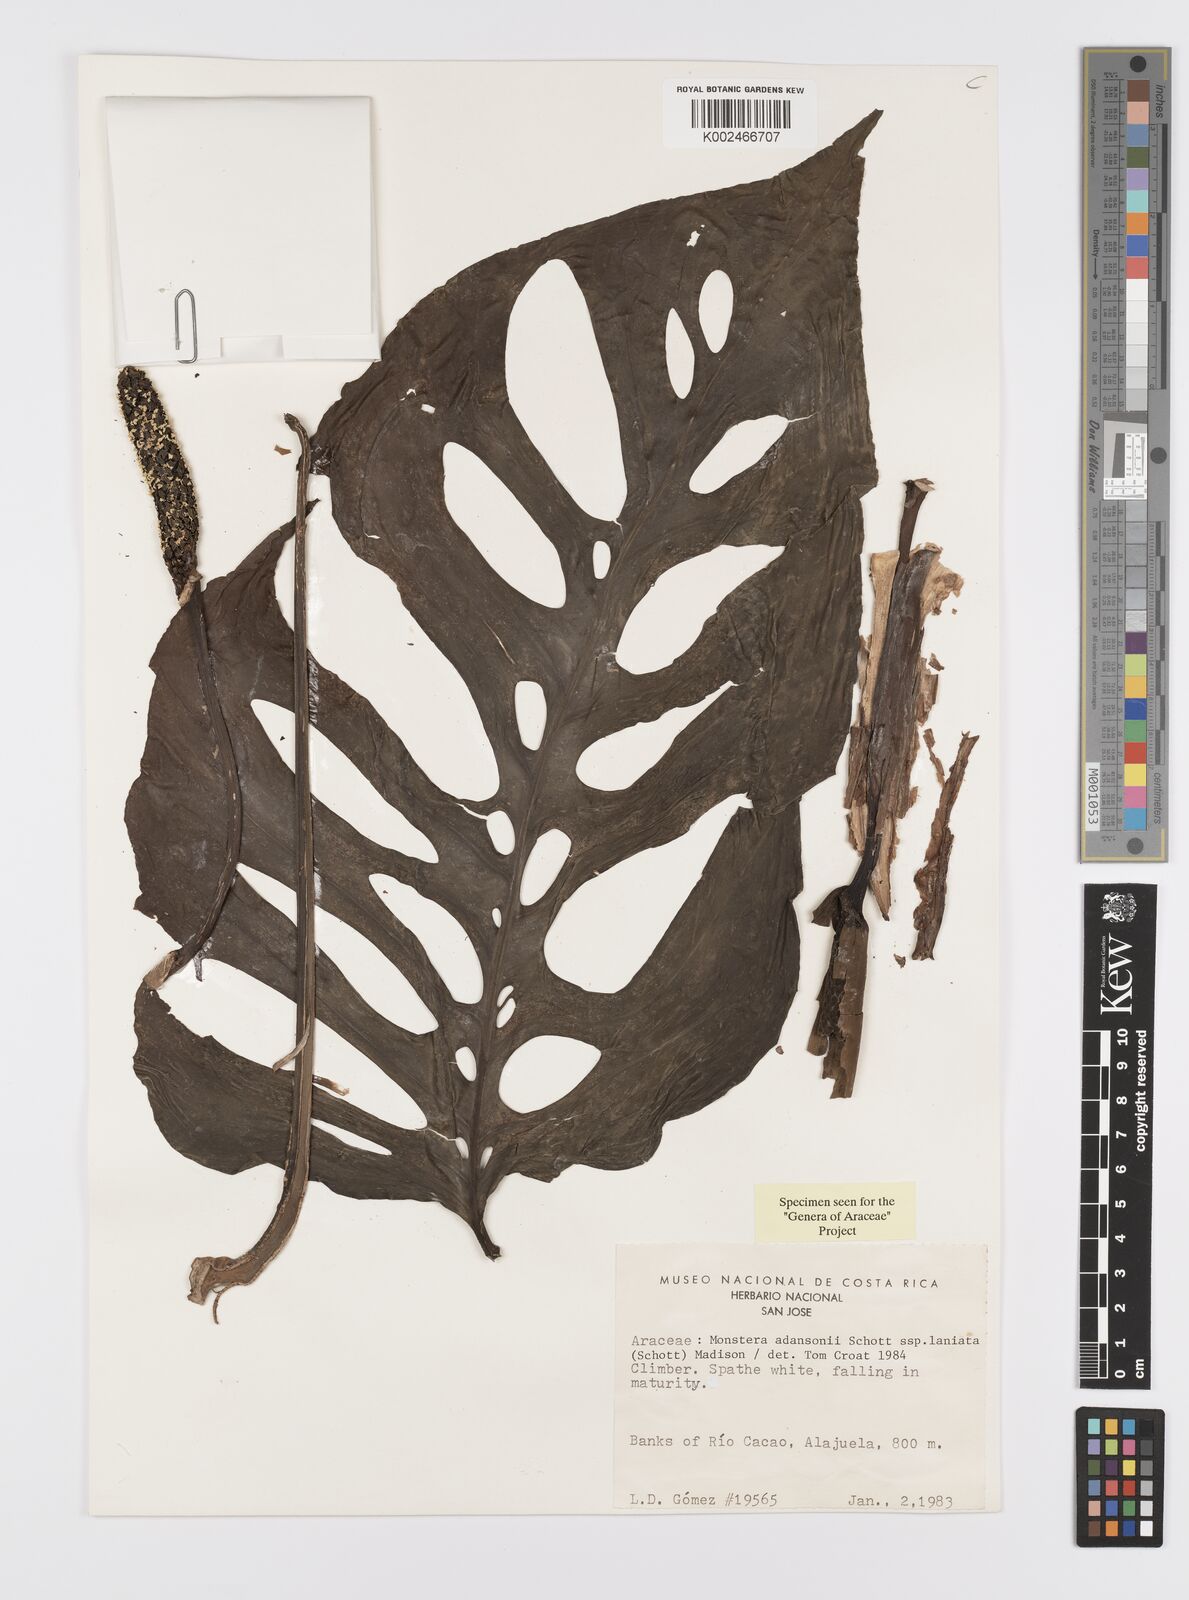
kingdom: Plantae
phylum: Tracheophyta
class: Liliopsida
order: Alismatales
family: Araceae
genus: Monstera
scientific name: Monstera adansonii
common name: Tarovine
